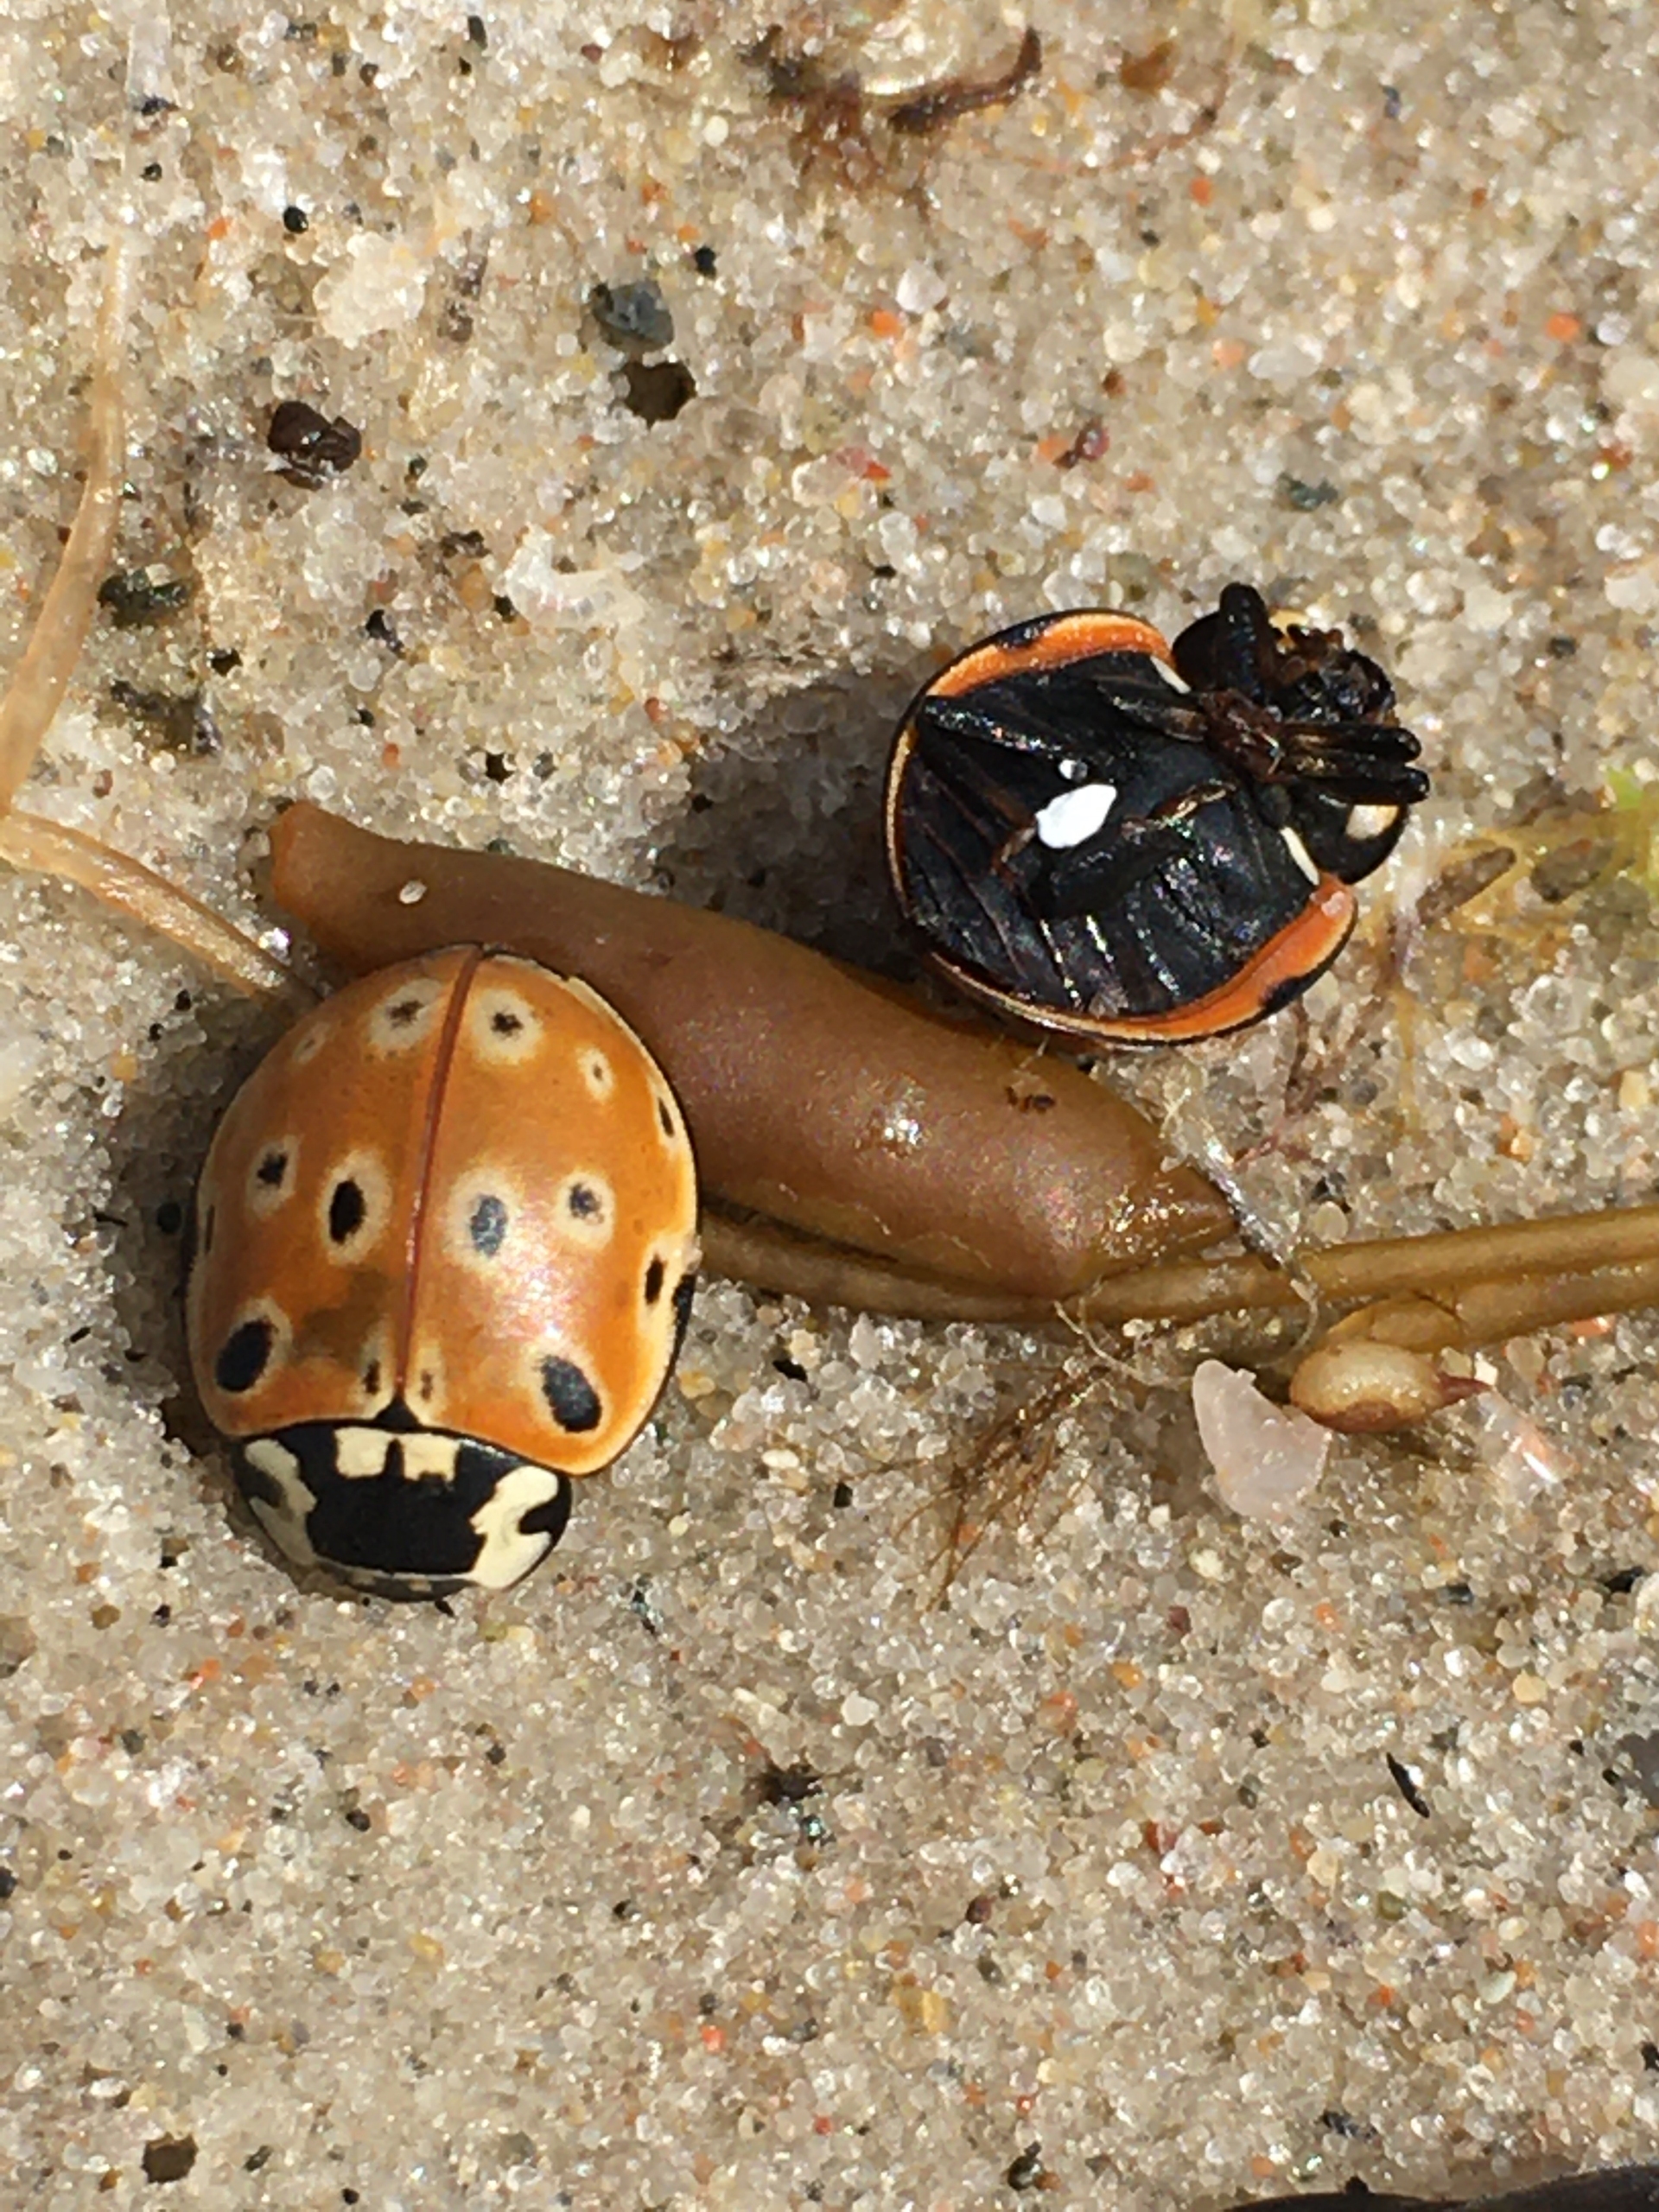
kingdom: Animalia
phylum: Arthropoda
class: Insecta
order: Coleoptera
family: Coccinellidae
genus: Anatis
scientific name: Anatis ocellata
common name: Øjeplettet mariehøne
